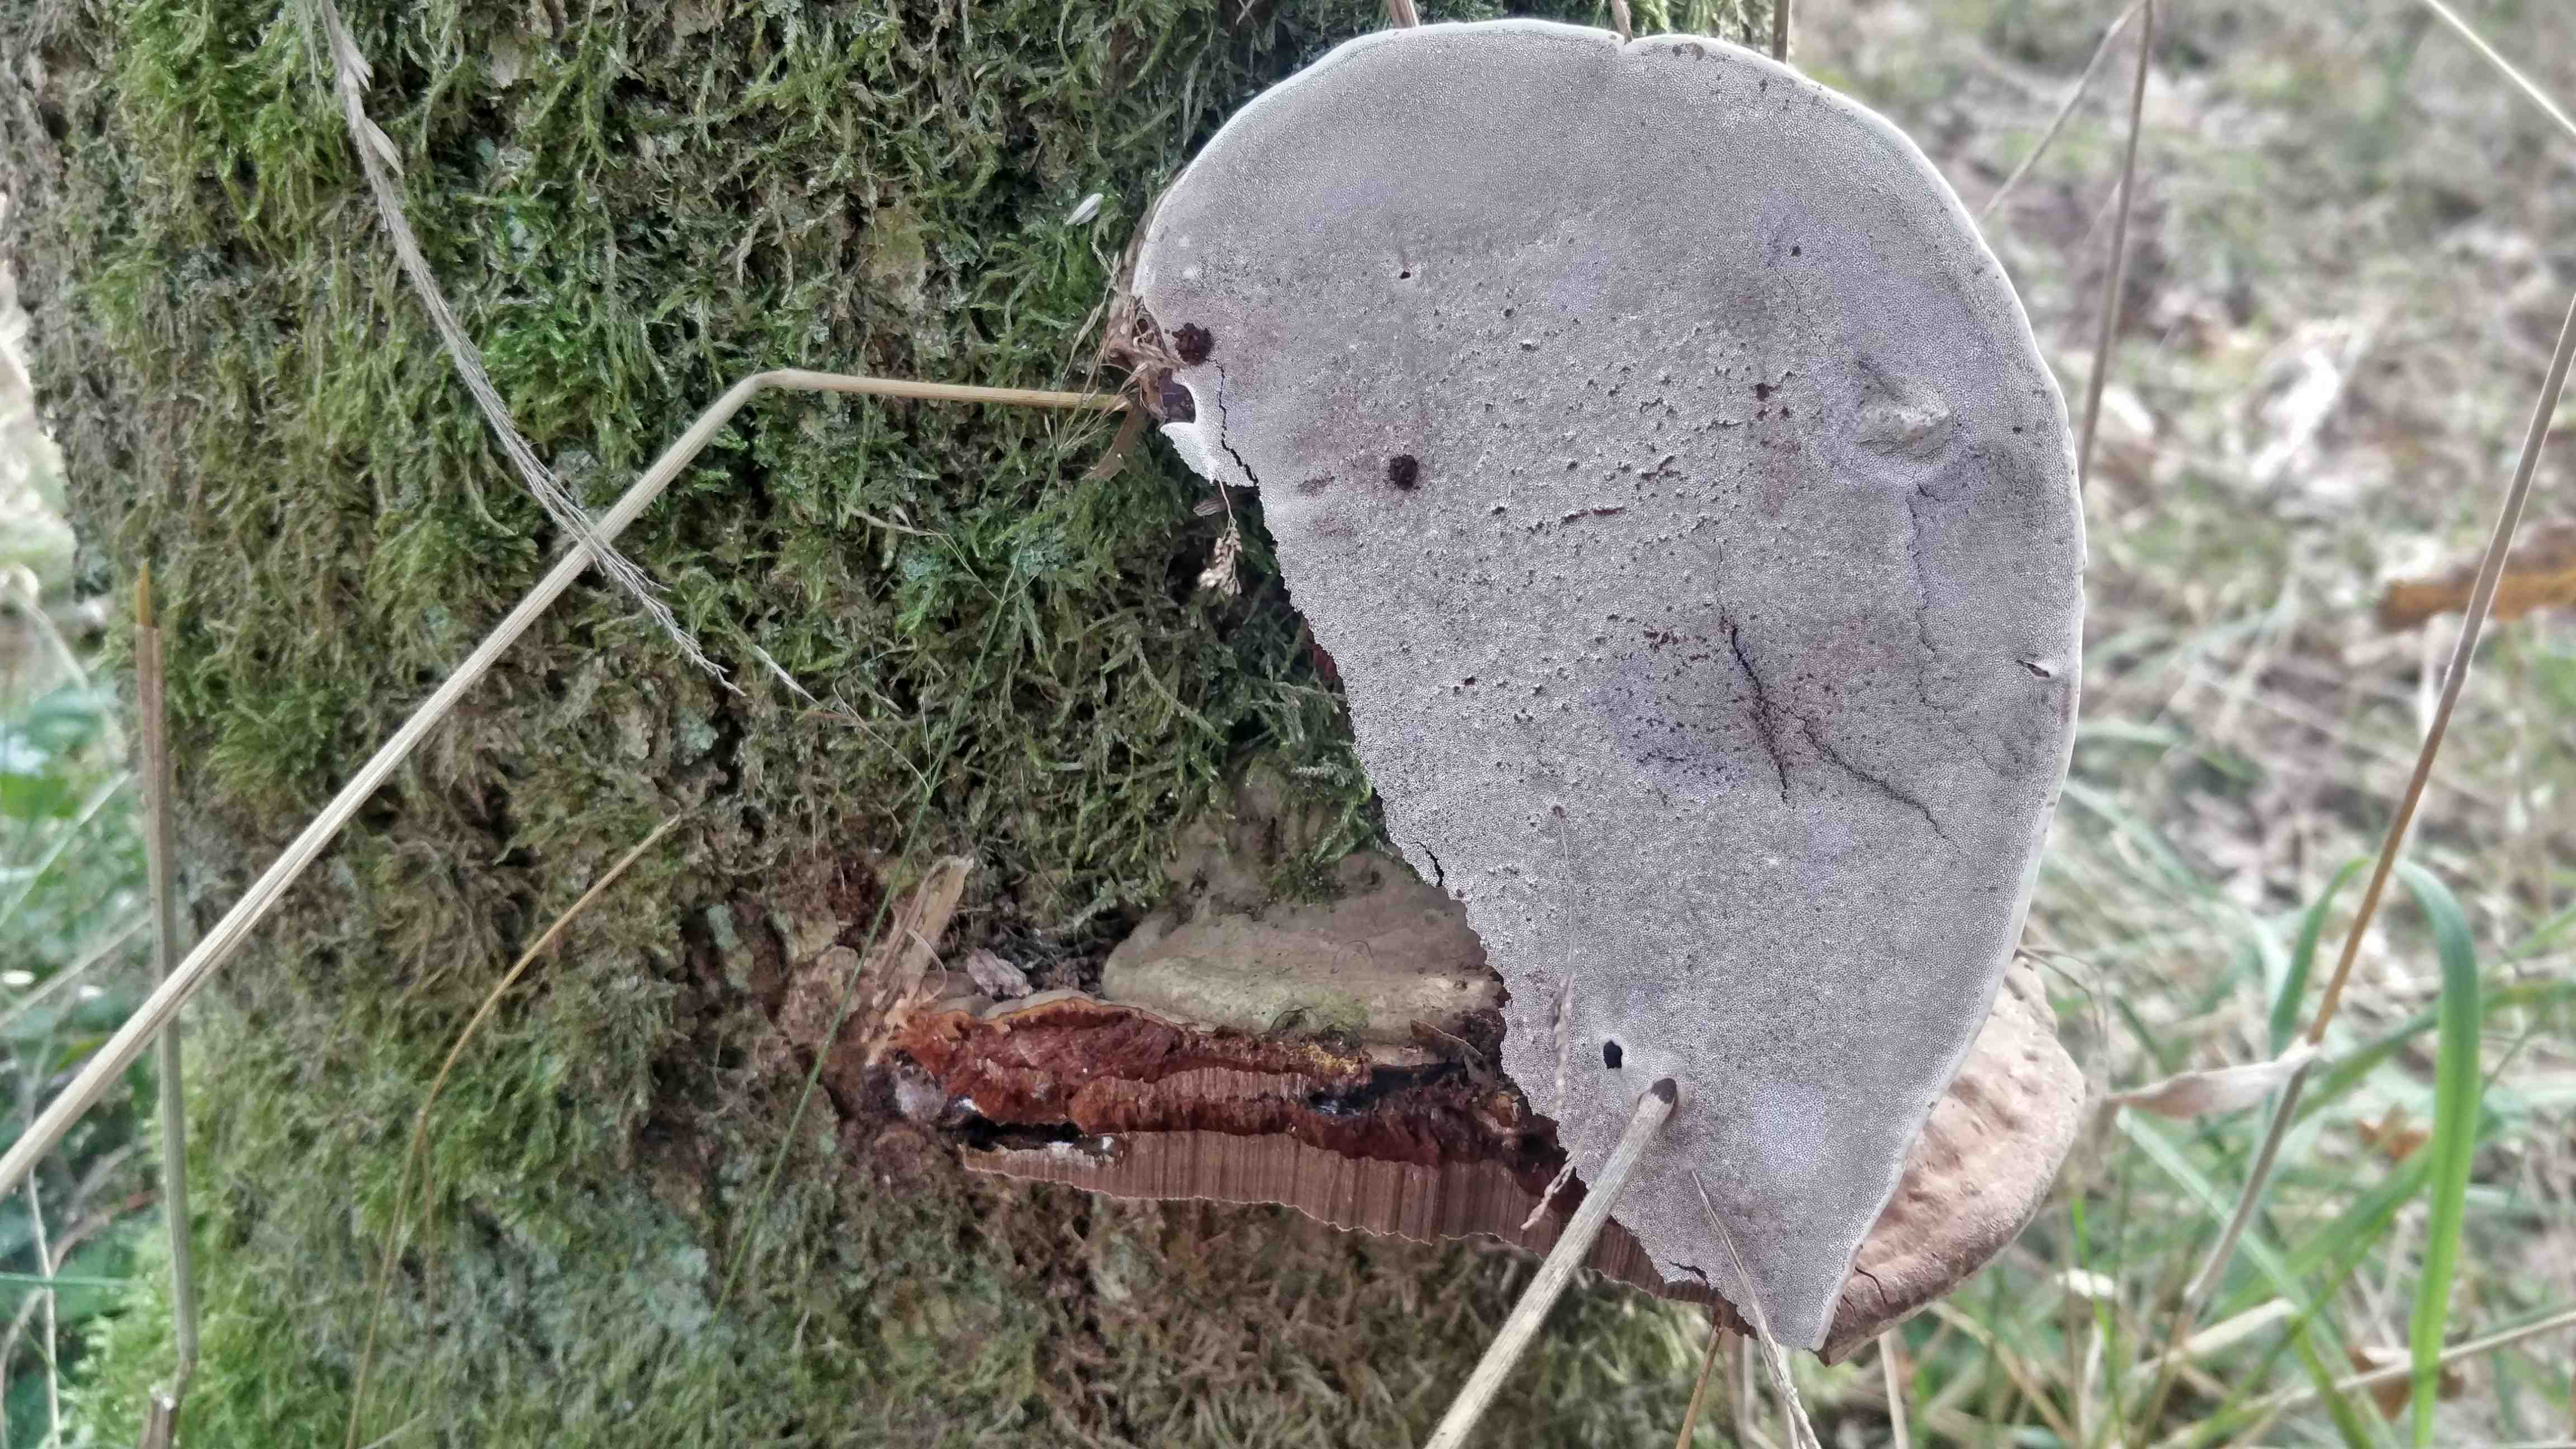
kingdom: Fungi
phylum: Basidiomycota
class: Agaricomycetes
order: Polyporales
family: Polyporaceae
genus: Ganoderma
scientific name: Ganoderma applanatum
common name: flad lakporesvamp
